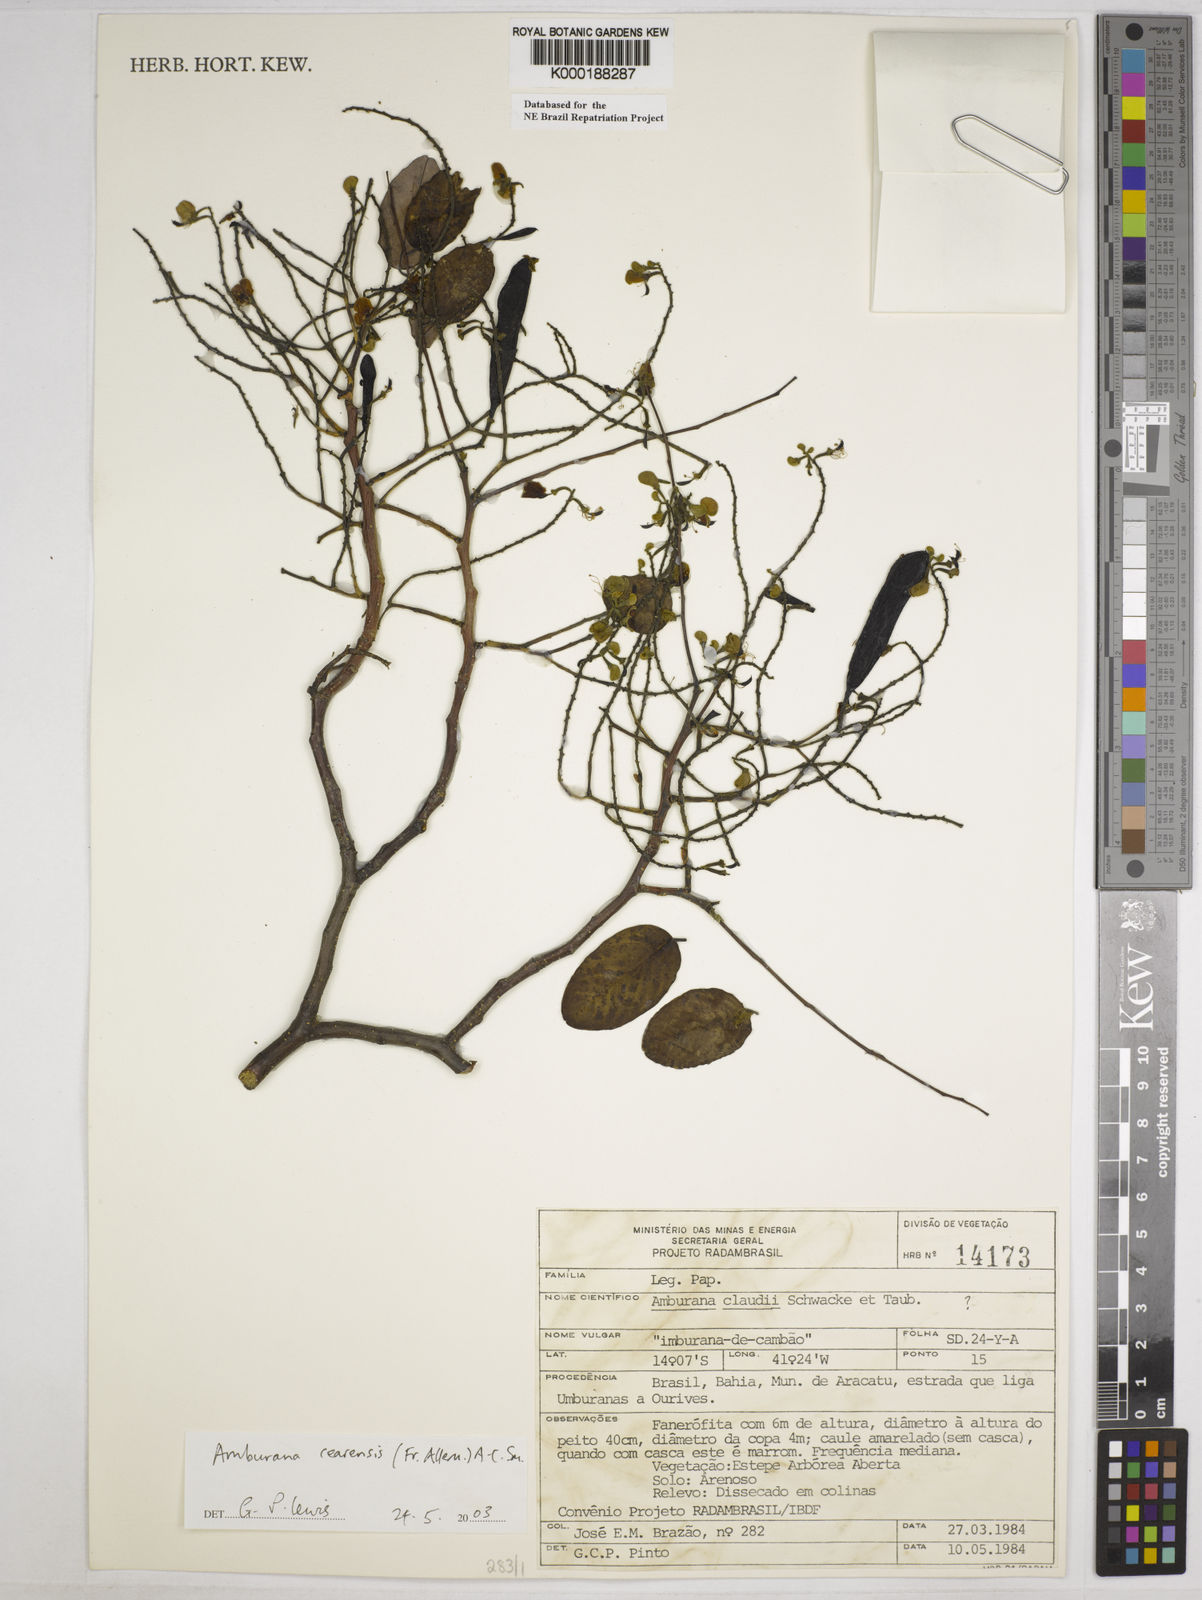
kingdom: Plantae
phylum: Tracheophyta
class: Magnoliopsida
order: Fabales
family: Fabaceae
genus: Amburana
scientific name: Amburana
